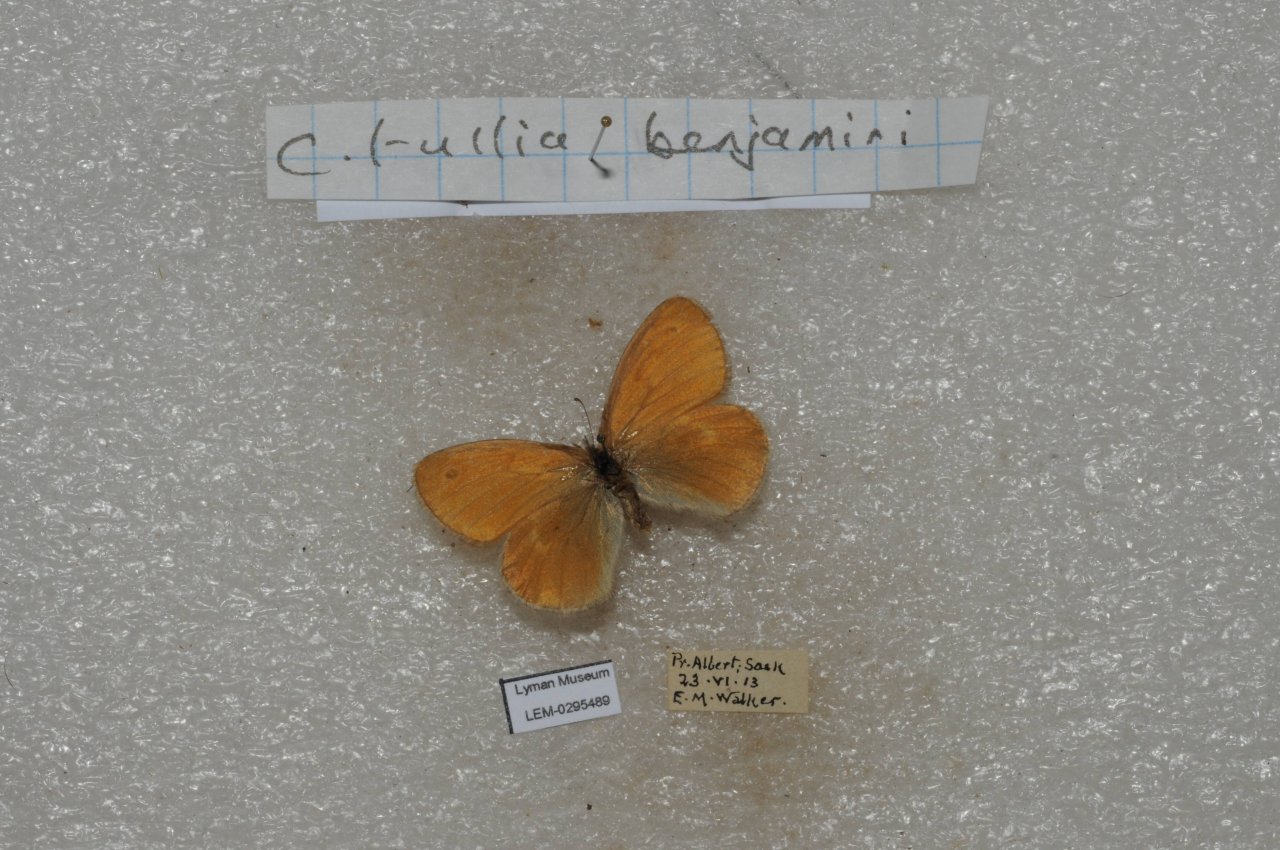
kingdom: Animalia
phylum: Arthropoda
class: Insecta
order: Lepidoptera
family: Nymphalidae
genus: Coenonympha
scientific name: Coenonympha tullia
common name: Large Heath
